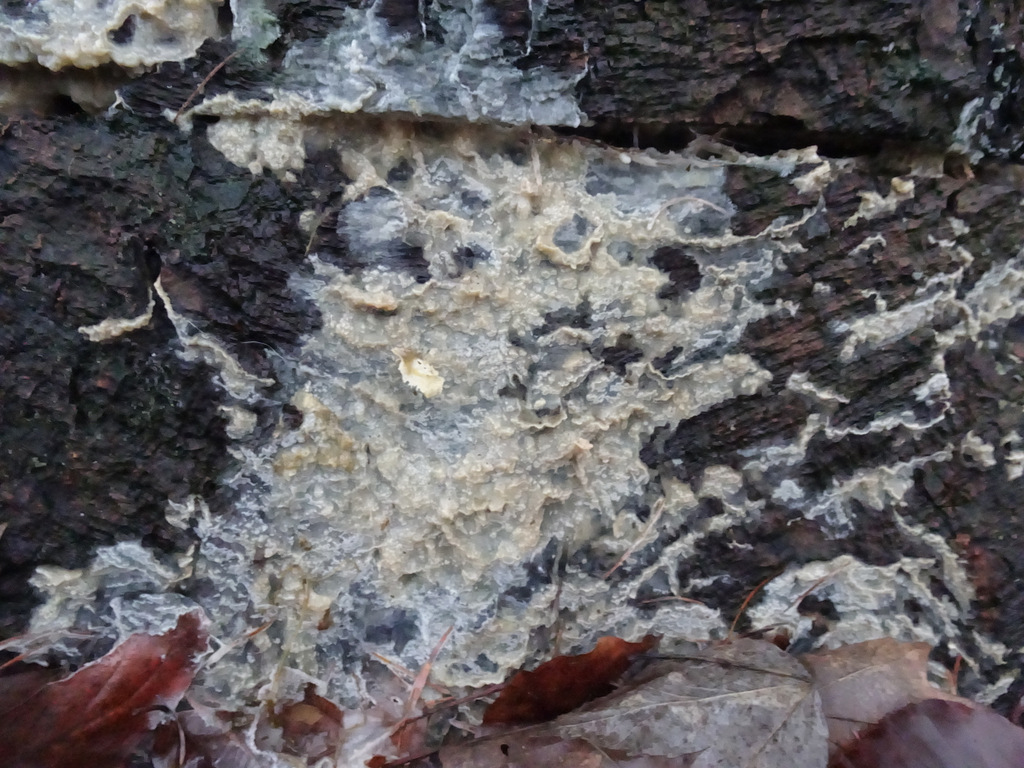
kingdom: Fungi
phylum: Basidiomycota
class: Agaricomycetes
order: Corticiales
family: Corticiaceae
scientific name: Corticiaceae
